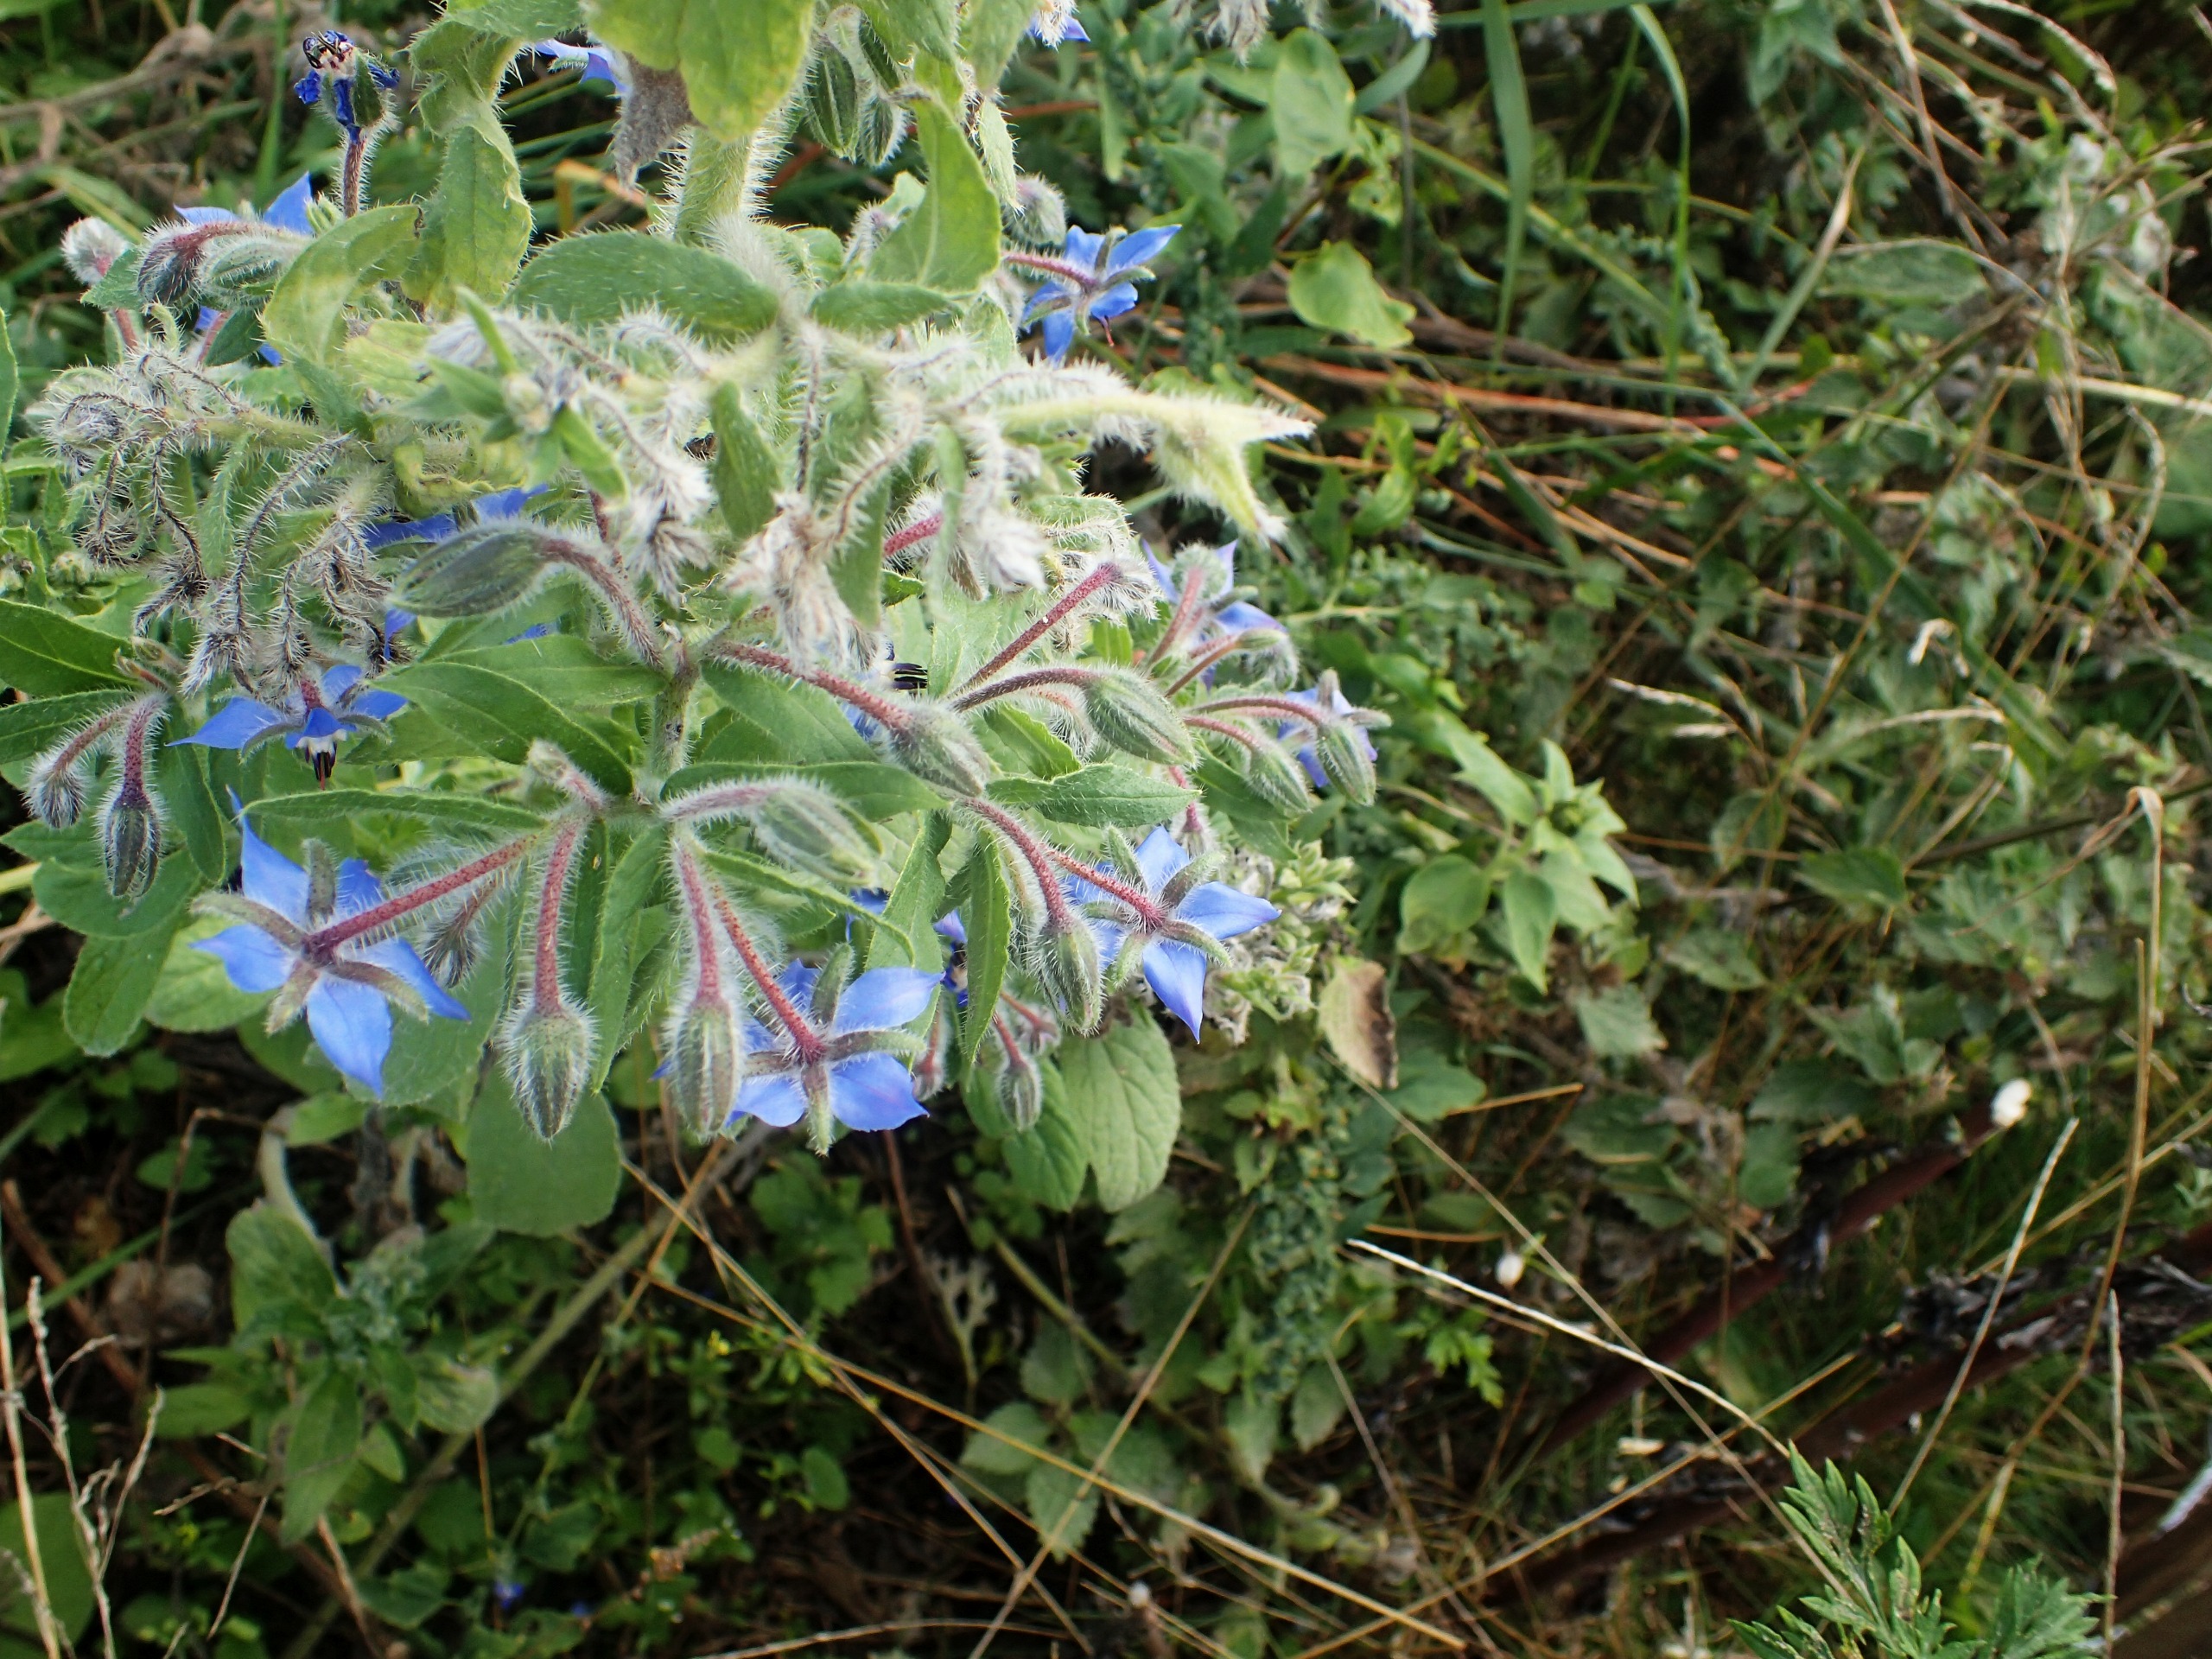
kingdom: Plantae
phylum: Tracheophyta
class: Magnoliopsida
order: Boraginales
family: Boraginaceae
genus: Borago
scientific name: Borago officinalis
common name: Hjulkrone
